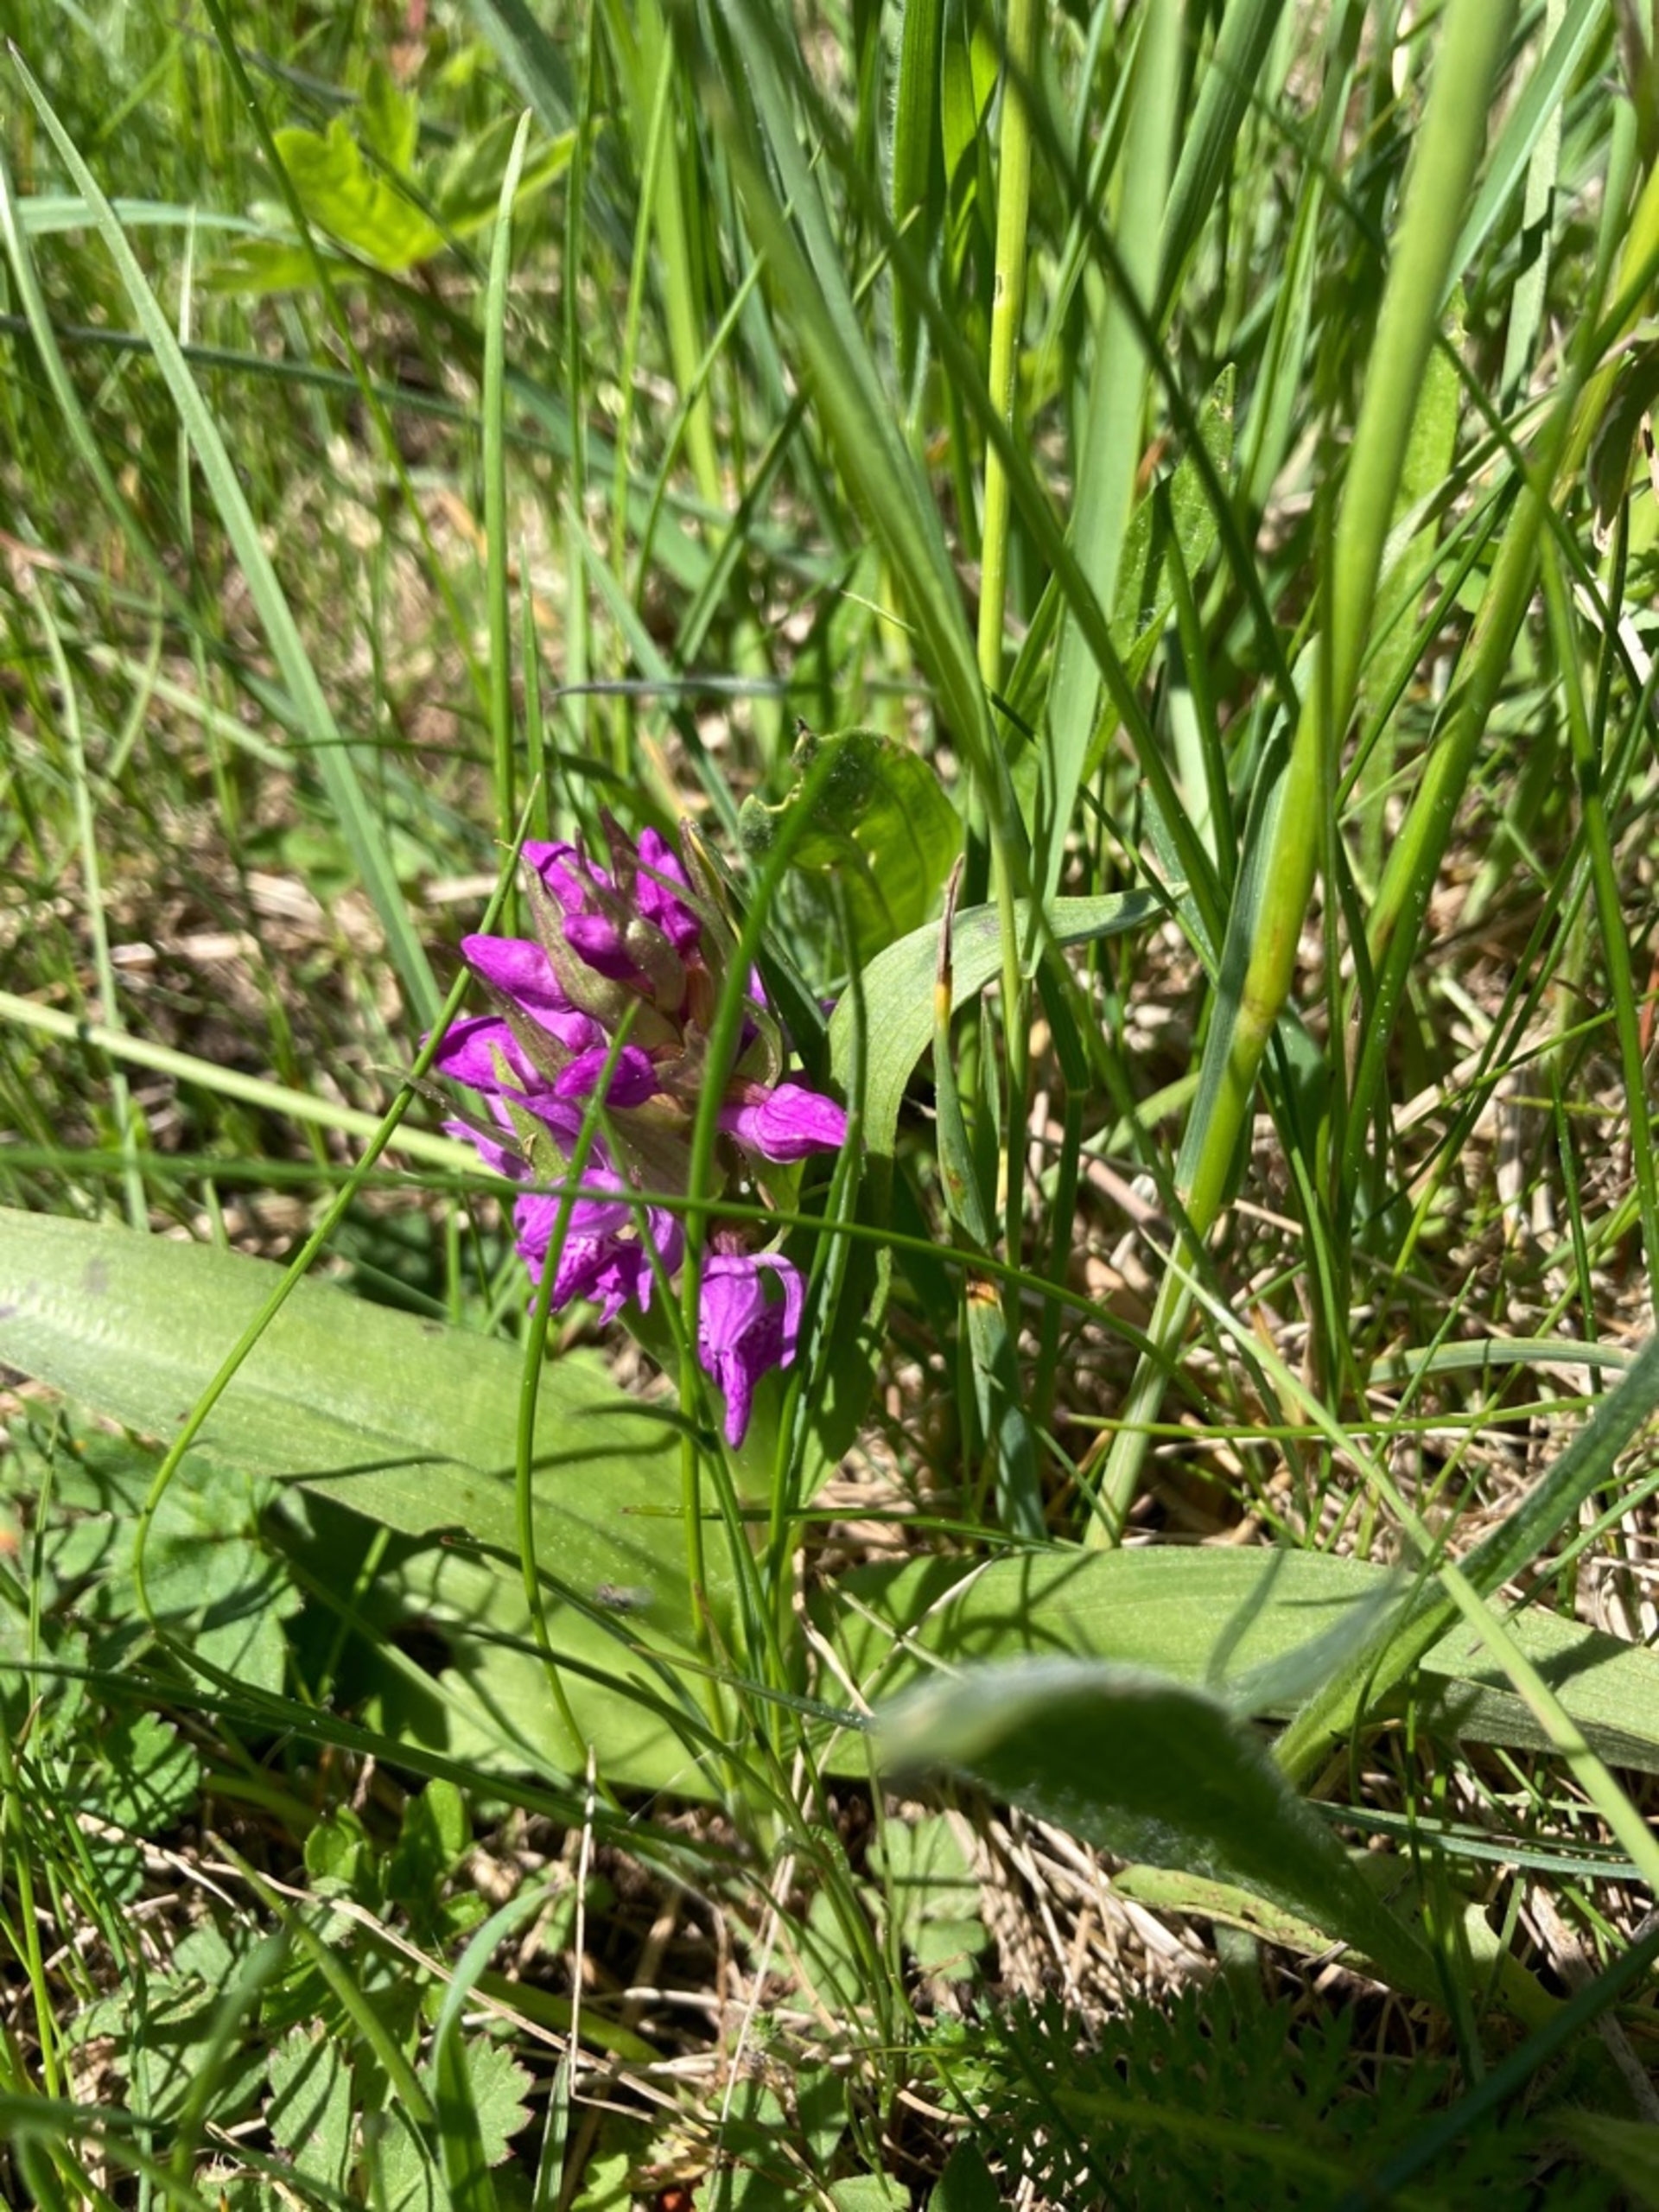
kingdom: Plantae
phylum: Tracheophyta
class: Liliopsida
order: Asparagales
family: Orchidaceae
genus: Dactylorhiza
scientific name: Dactylorhiza majalis
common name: Maj-gøgeurt
